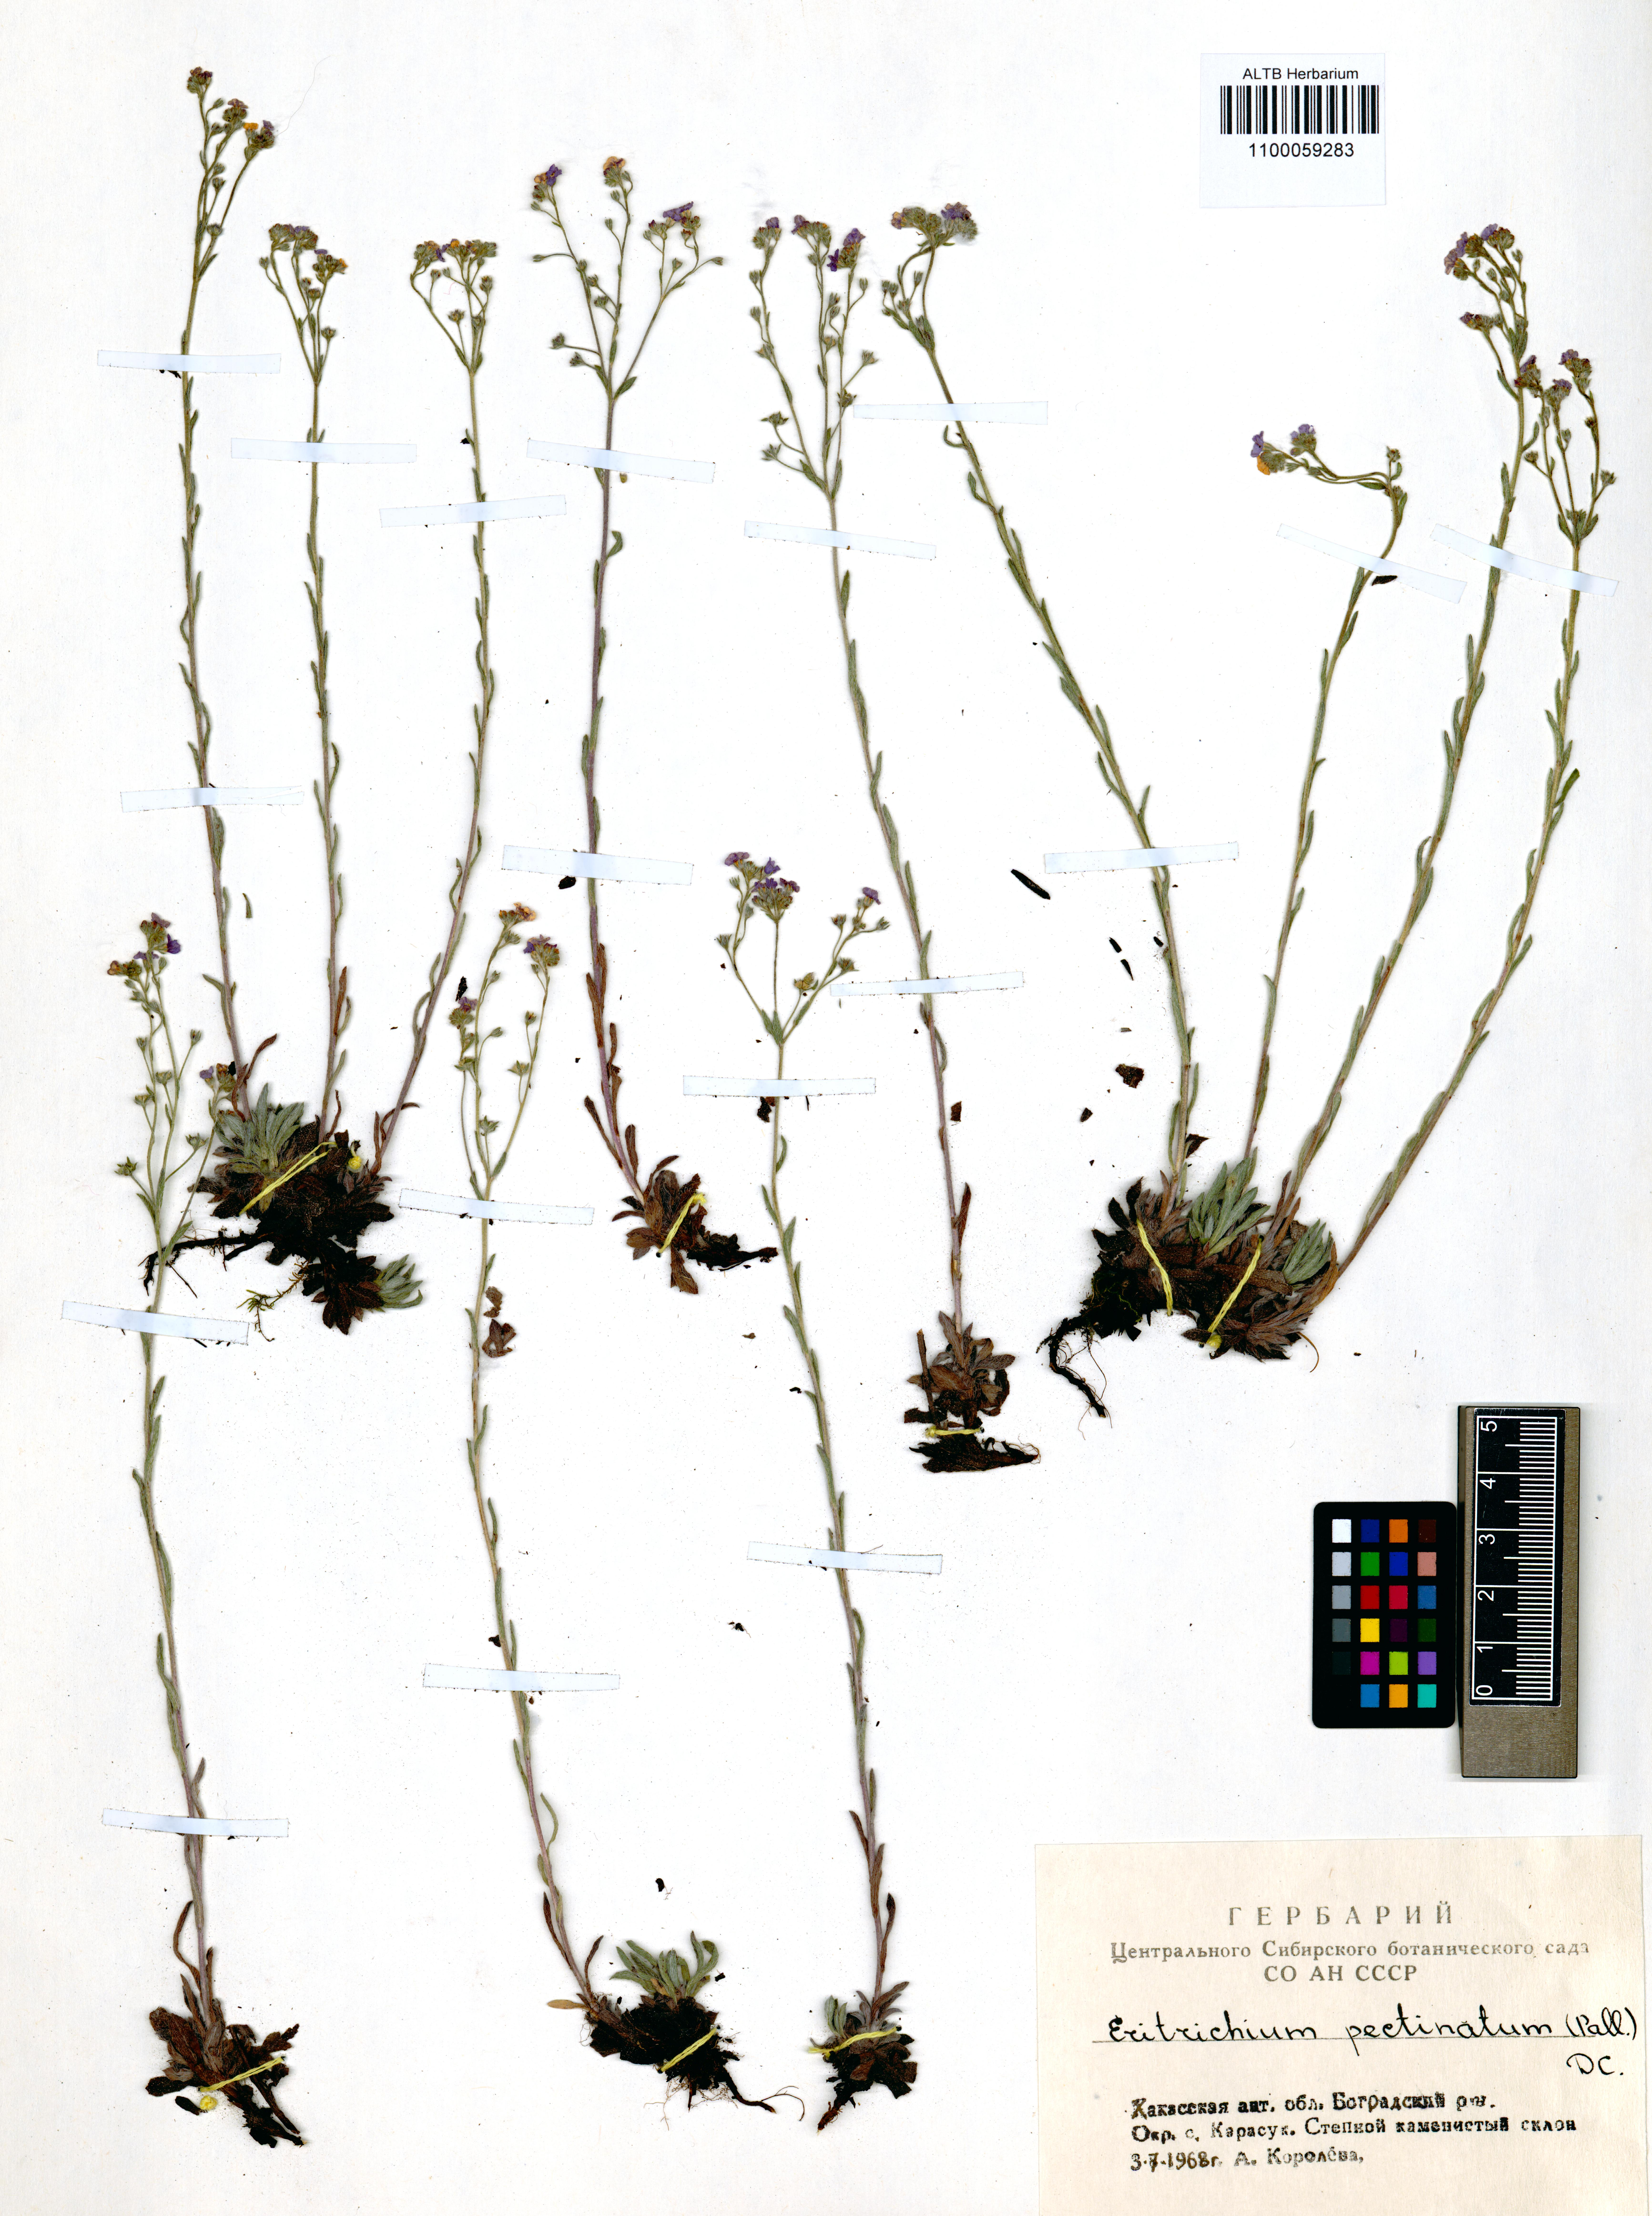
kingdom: Plantae
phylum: Tracheophyta
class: Magnoliopsida
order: Boraginales
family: Boraginaceae
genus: Eritrichium
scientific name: Eritrichium pectinatum
